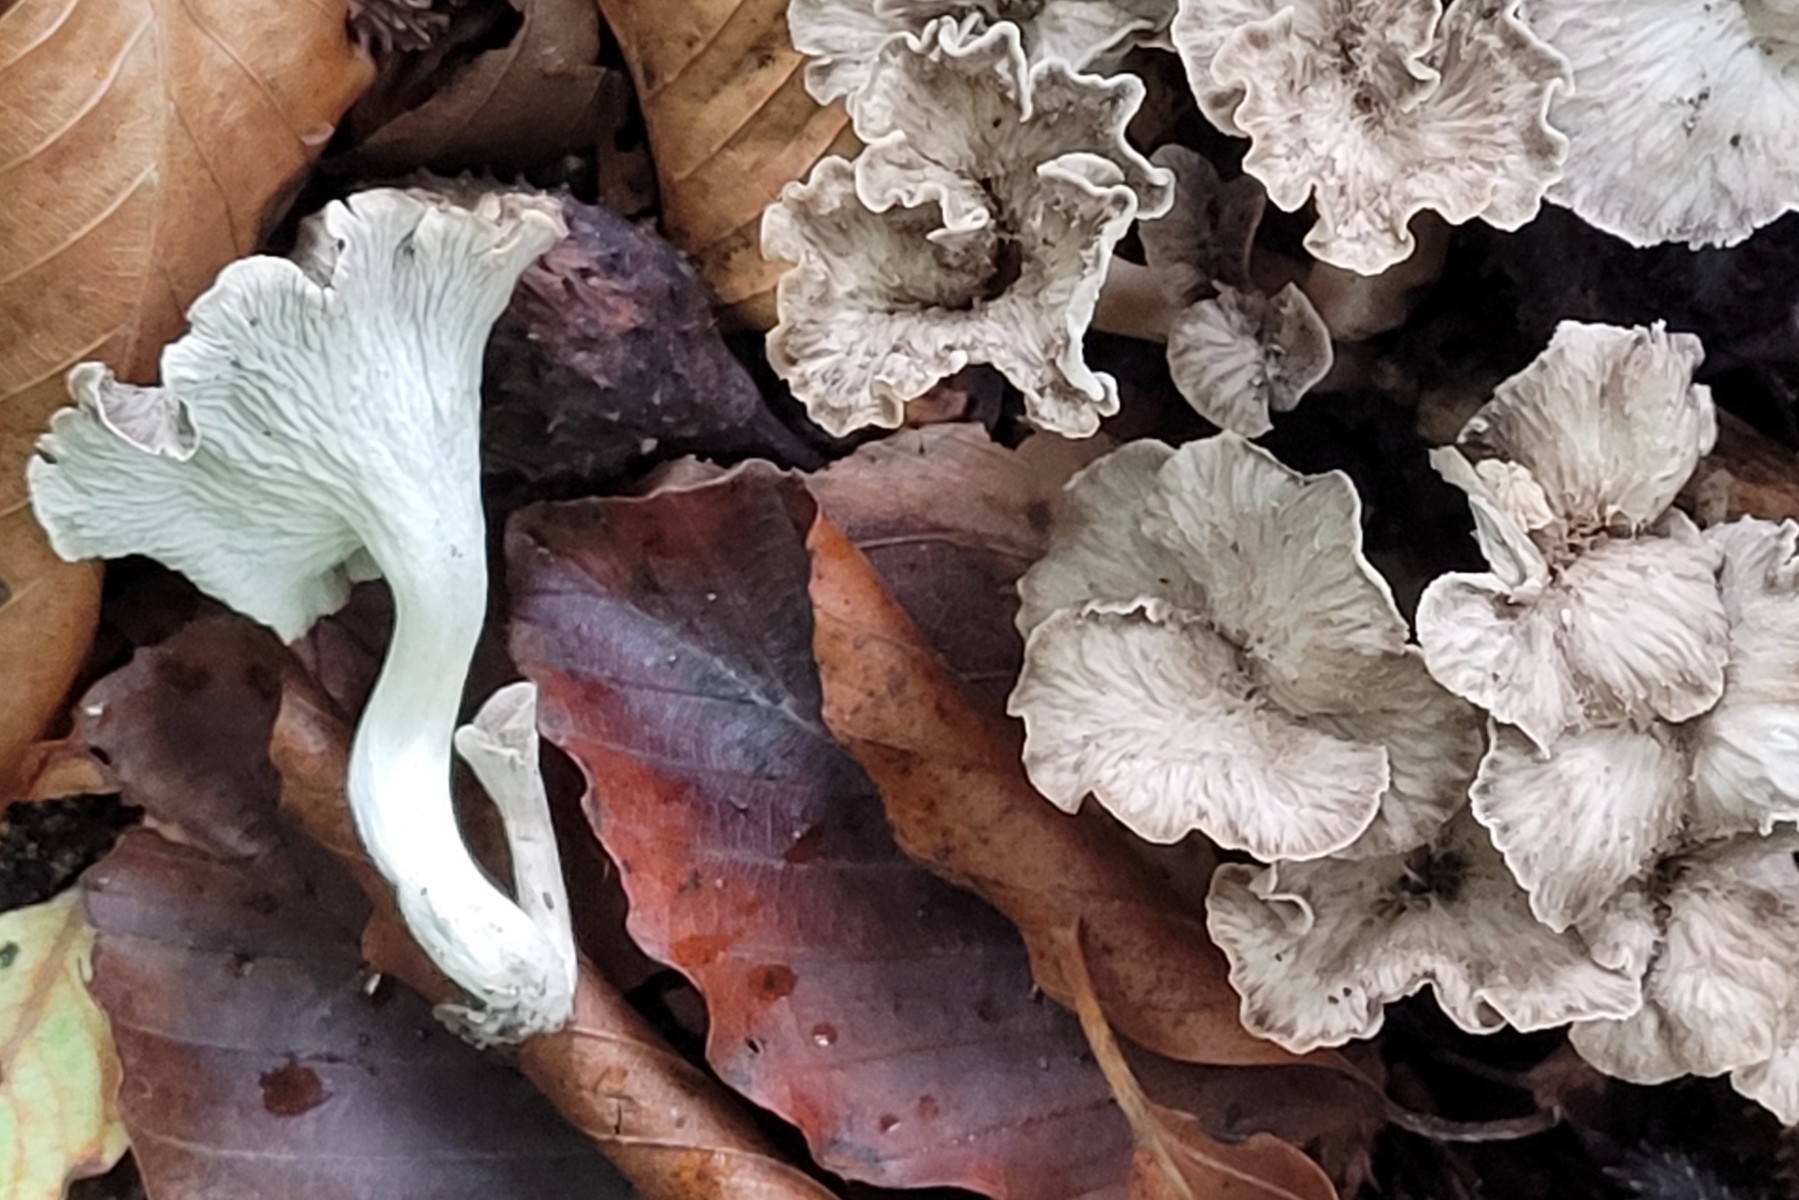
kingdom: Fungi
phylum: Basidiomycota
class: Agaricomycetes
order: Cantharellales
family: Hydnaceae
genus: Craterellus
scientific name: Craterellus undulatus
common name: liden kantarel
